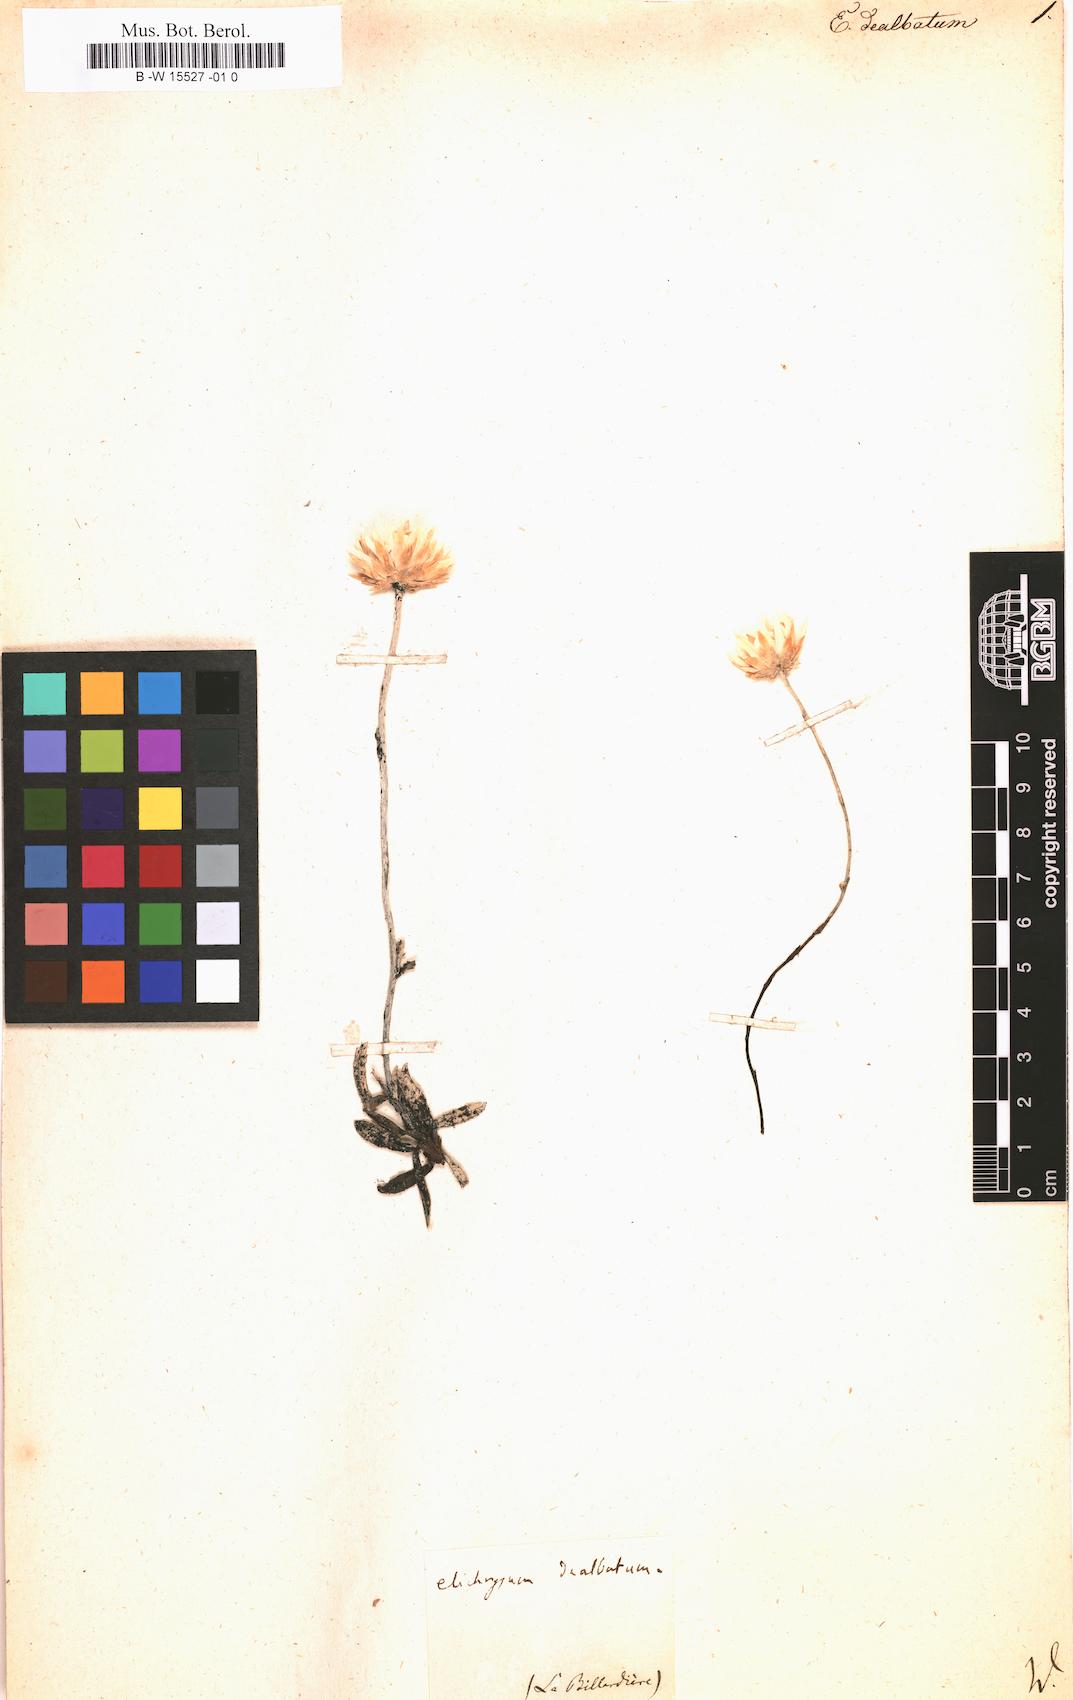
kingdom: Plantae
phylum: Tracheophyta
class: Magnoliopsida
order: Asterales
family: Asteraceae
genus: Helichrysum
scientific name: Helichrysum
